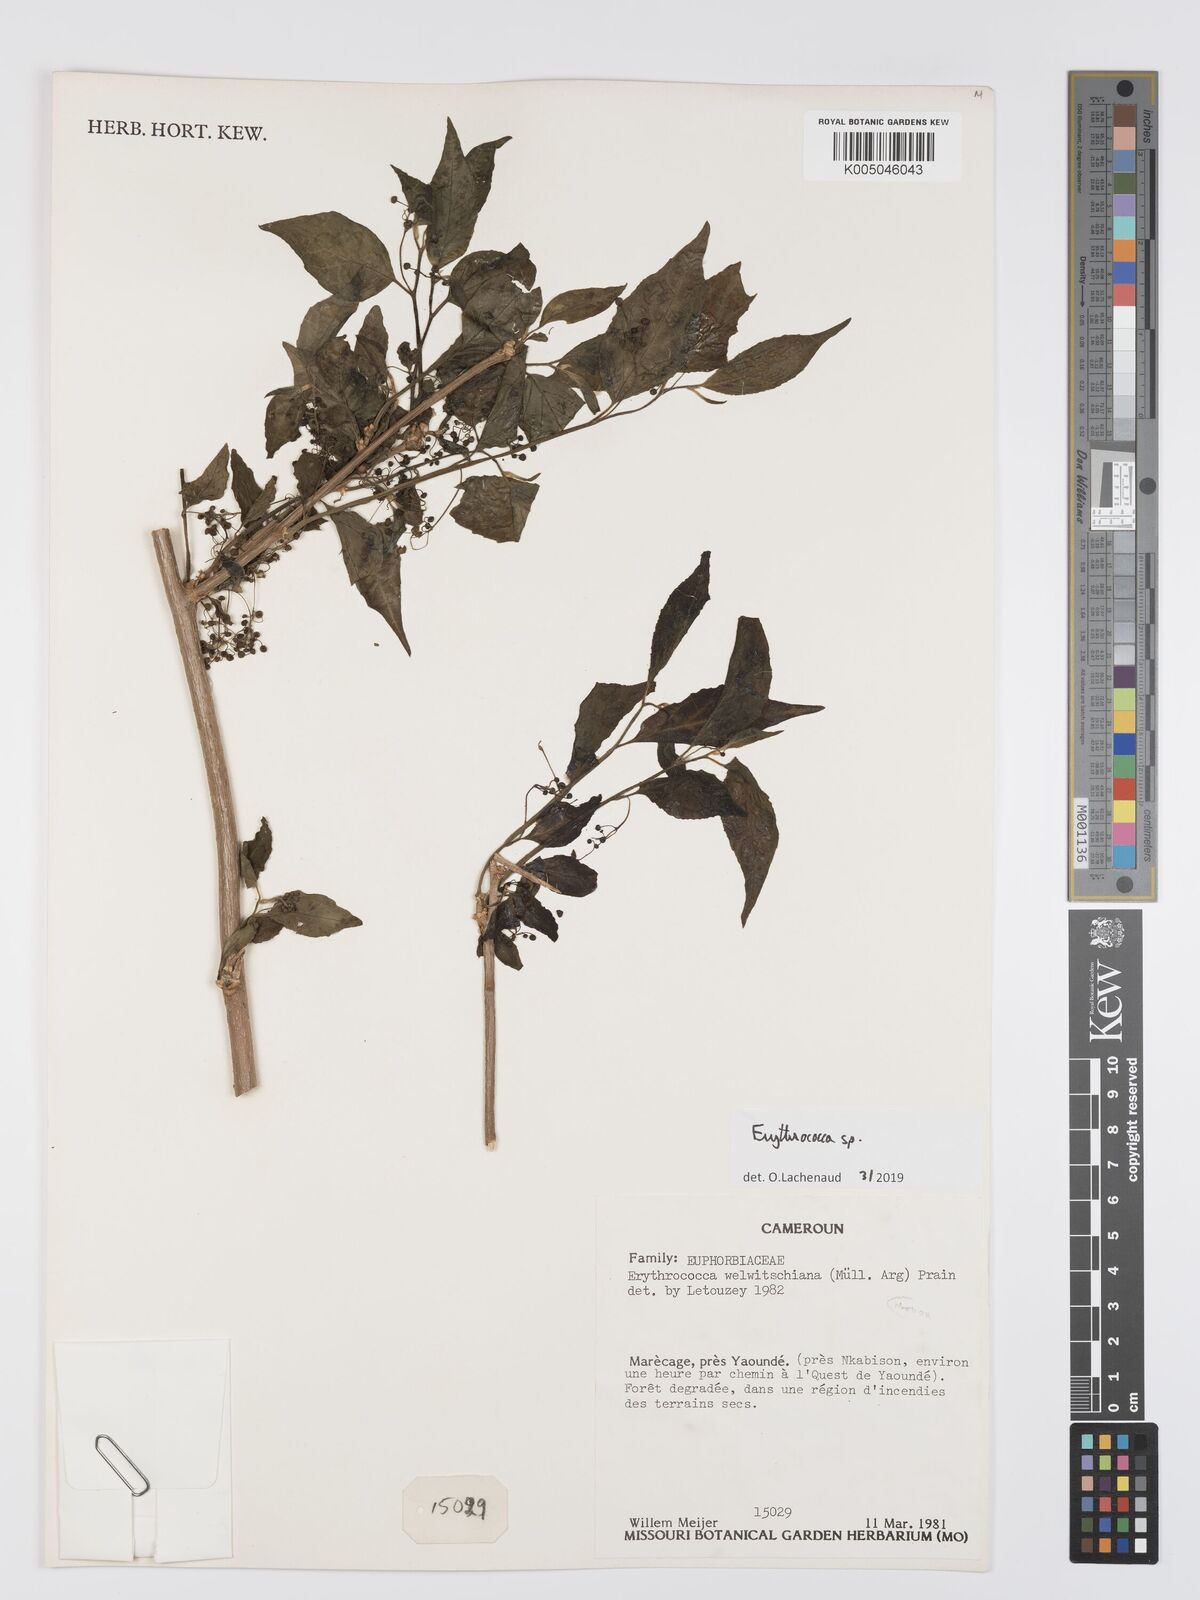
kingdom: Plantae
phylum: Tracheophyta
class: Magnoliopsida
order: Malpighiales
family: Euphorbiaceae
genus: Erythrococca
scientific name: Erythrococca
